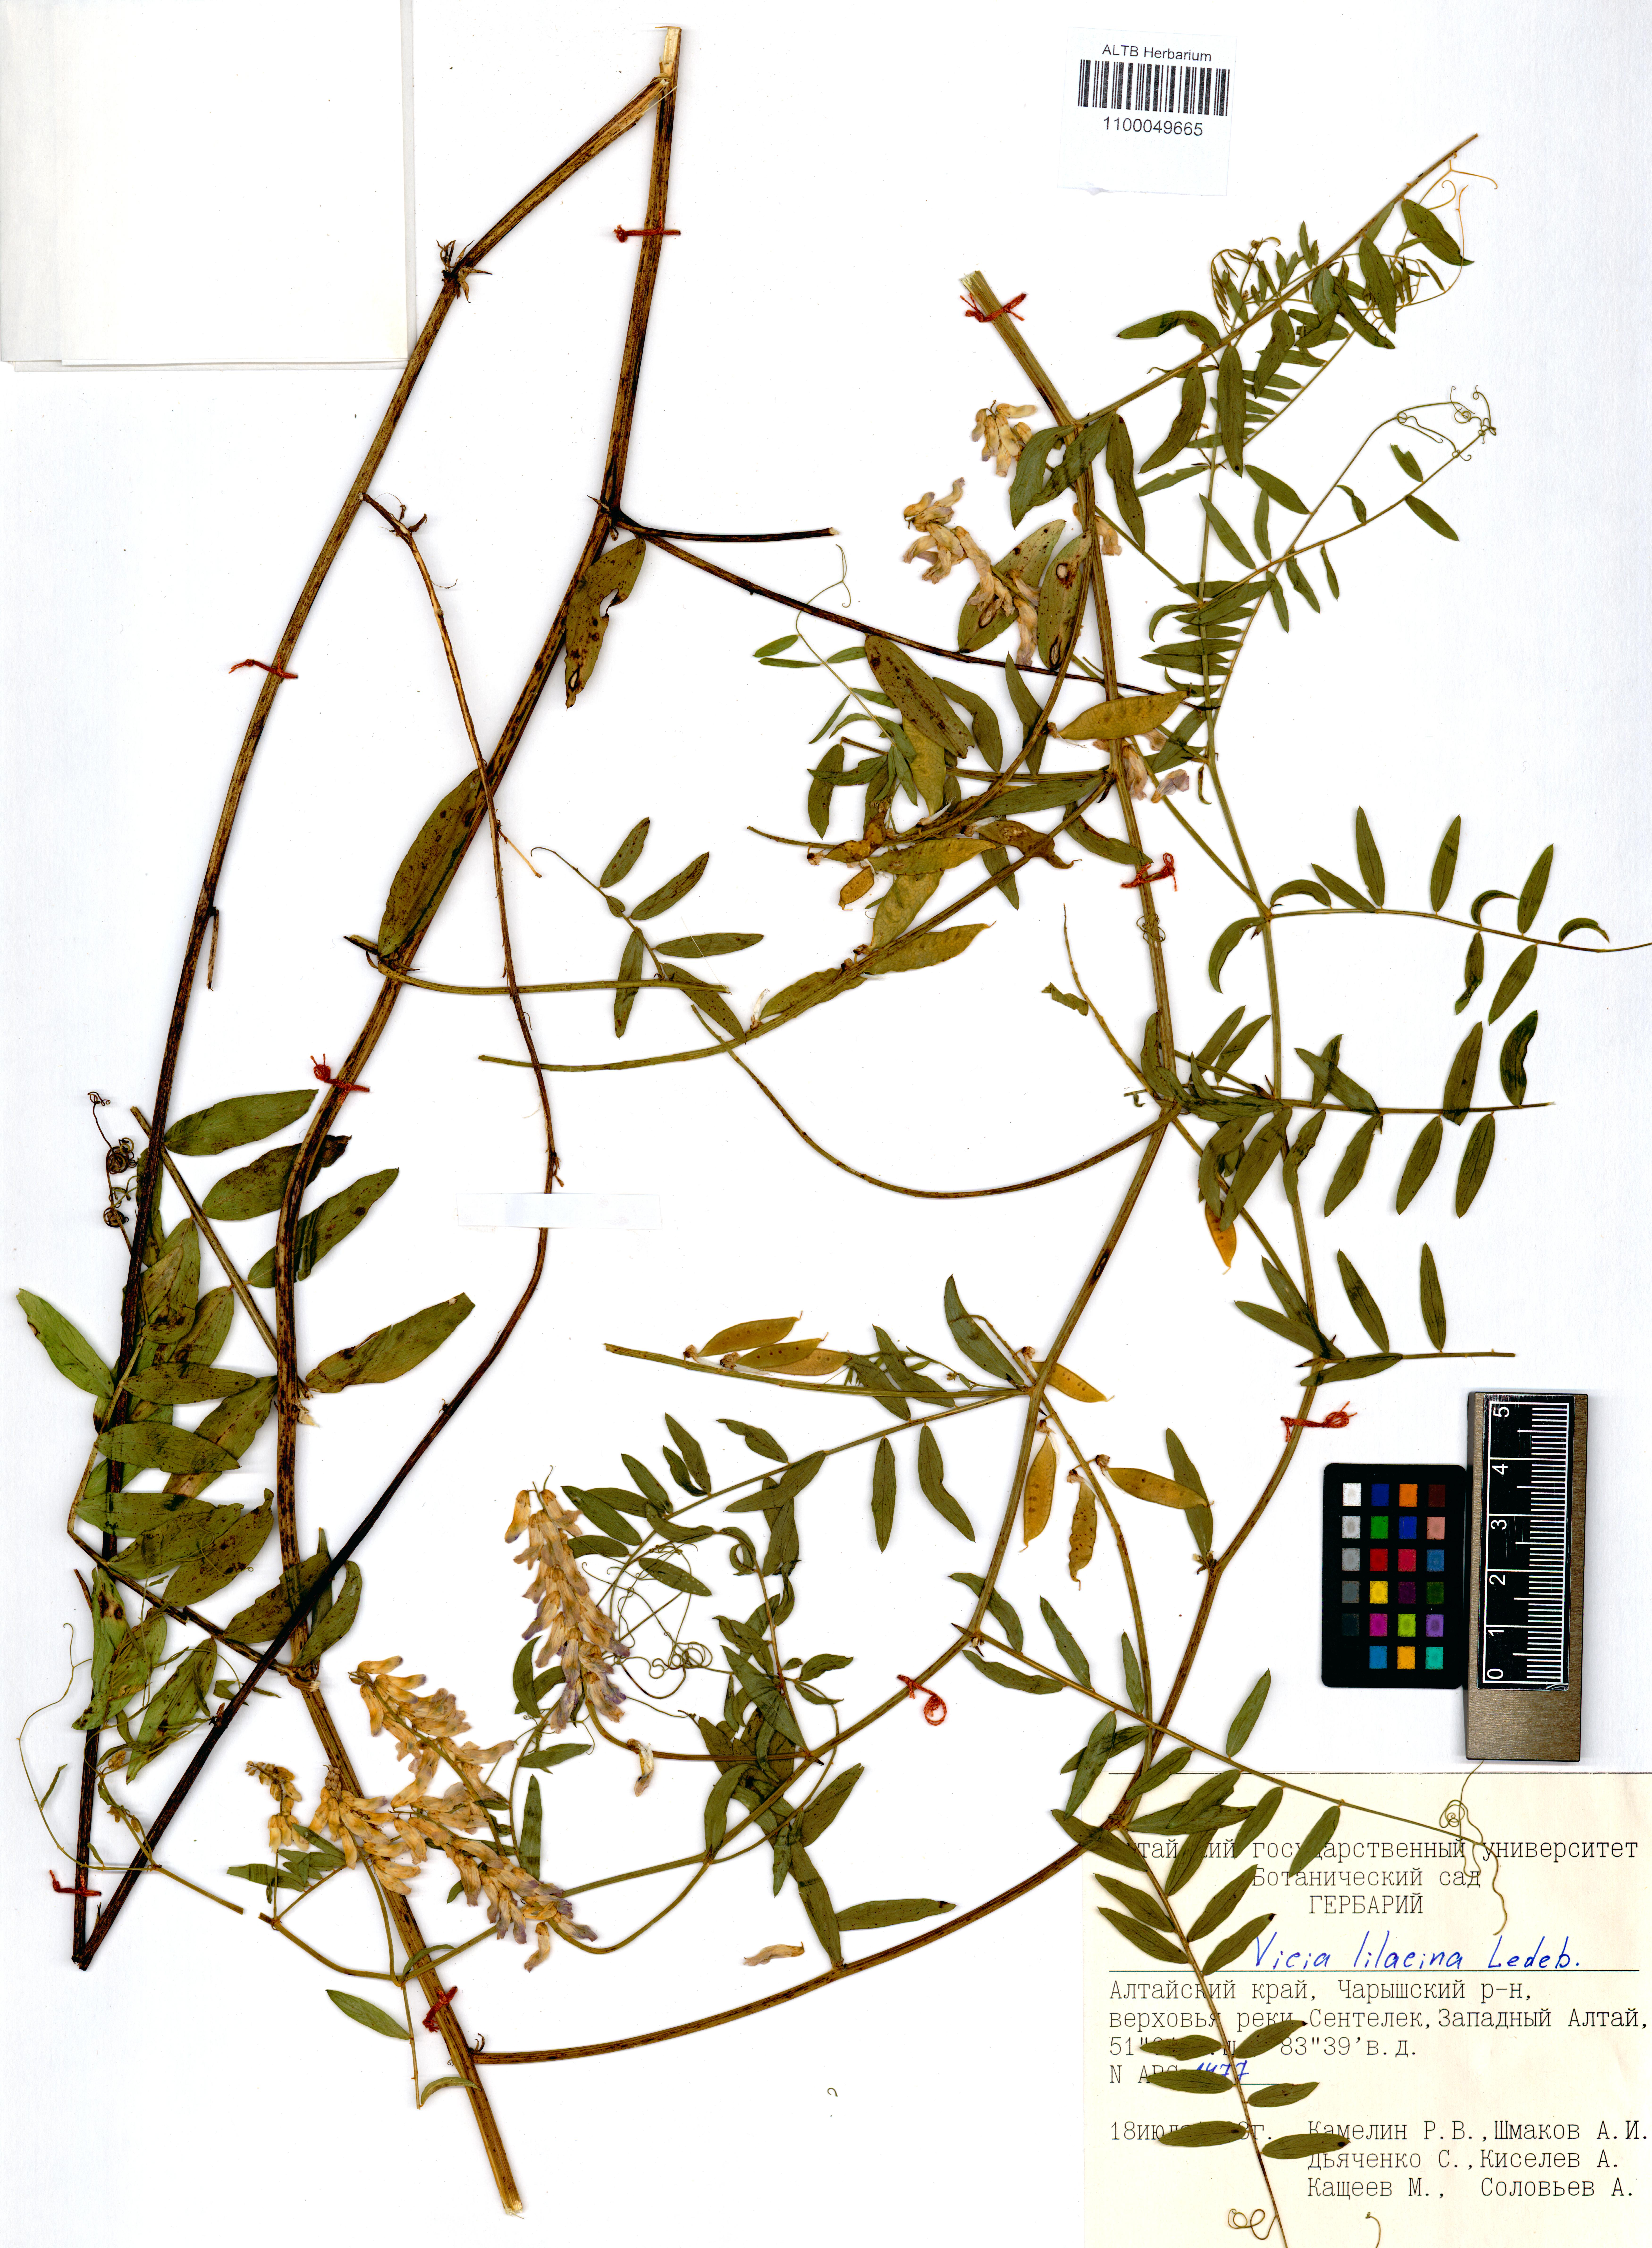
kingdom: Plantae
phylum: Tracheophyta
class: Magnoliopsida
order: Fabales
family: Fabaceae
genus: Vicia
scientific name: Vicia lilacina
